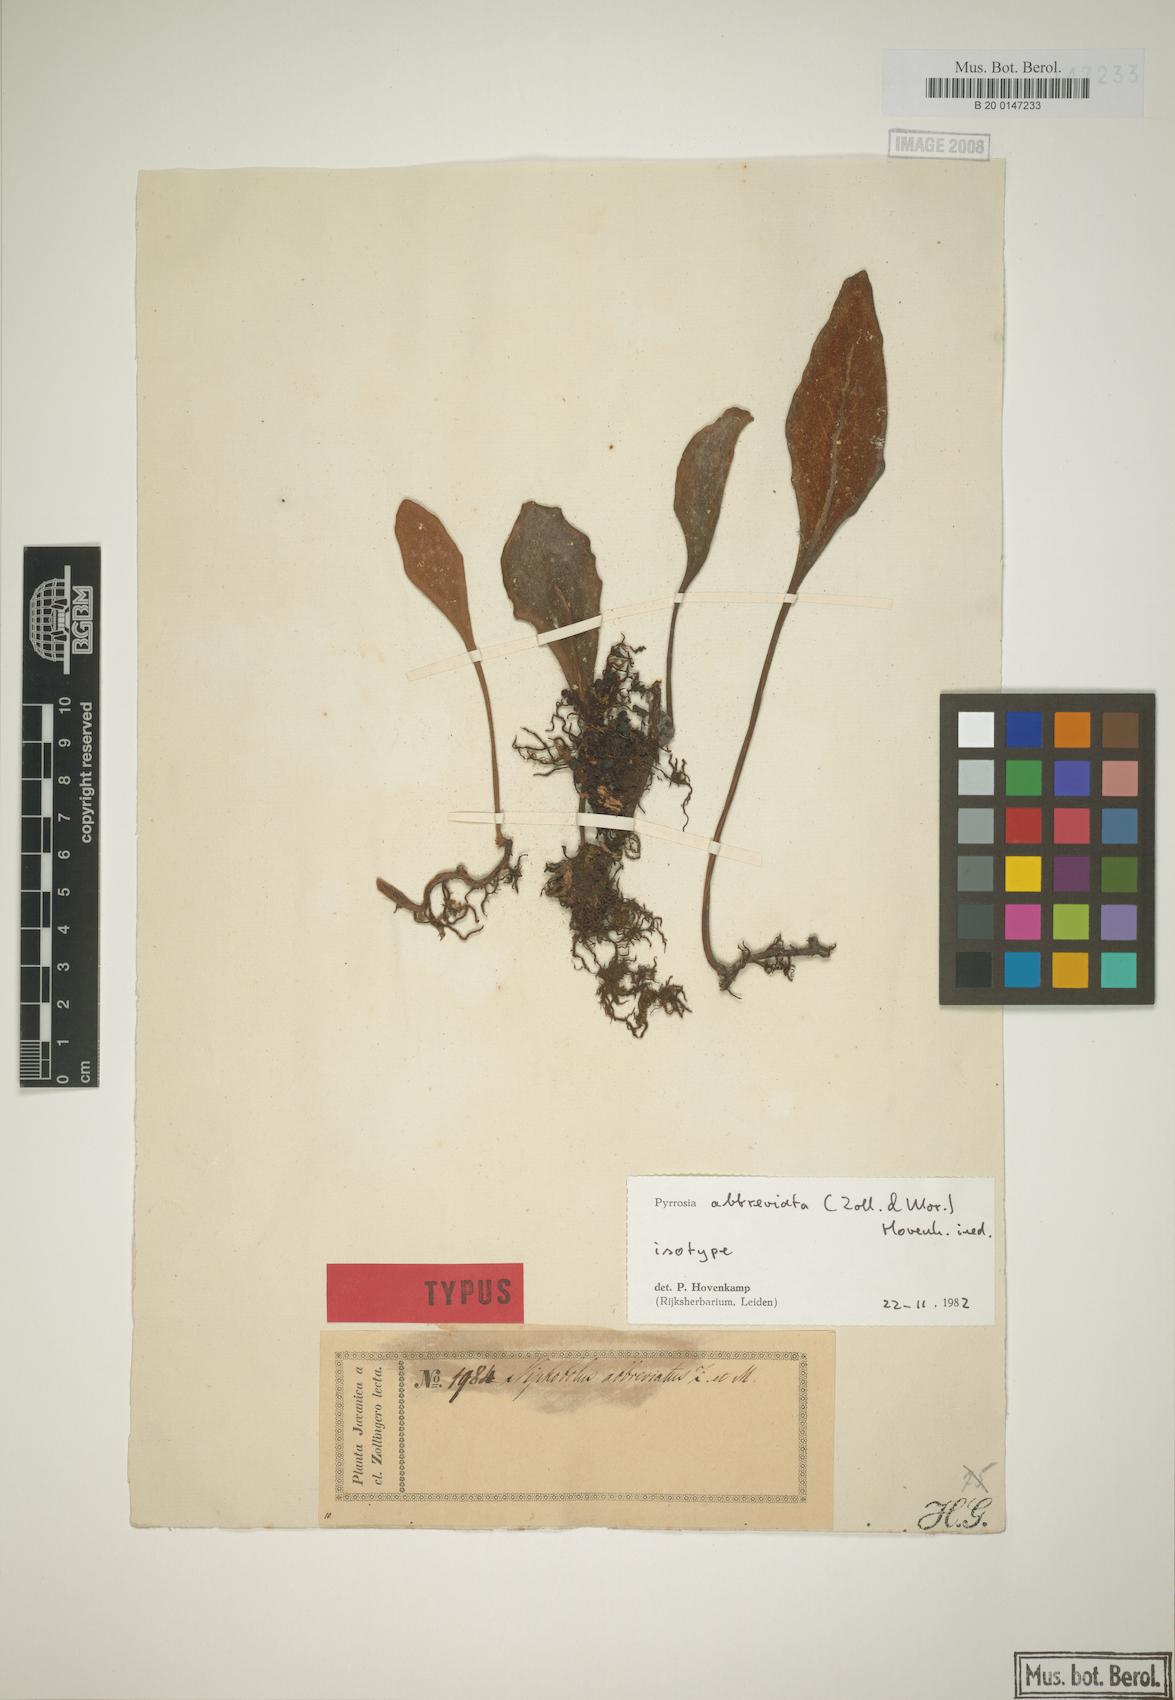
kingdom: Plantae
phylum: Tracheophyta
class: Polypodiopsida
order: Polypodiales
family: Polypodiaceae
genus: Pyrrosia
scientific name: Pyrrosia abbreviata
